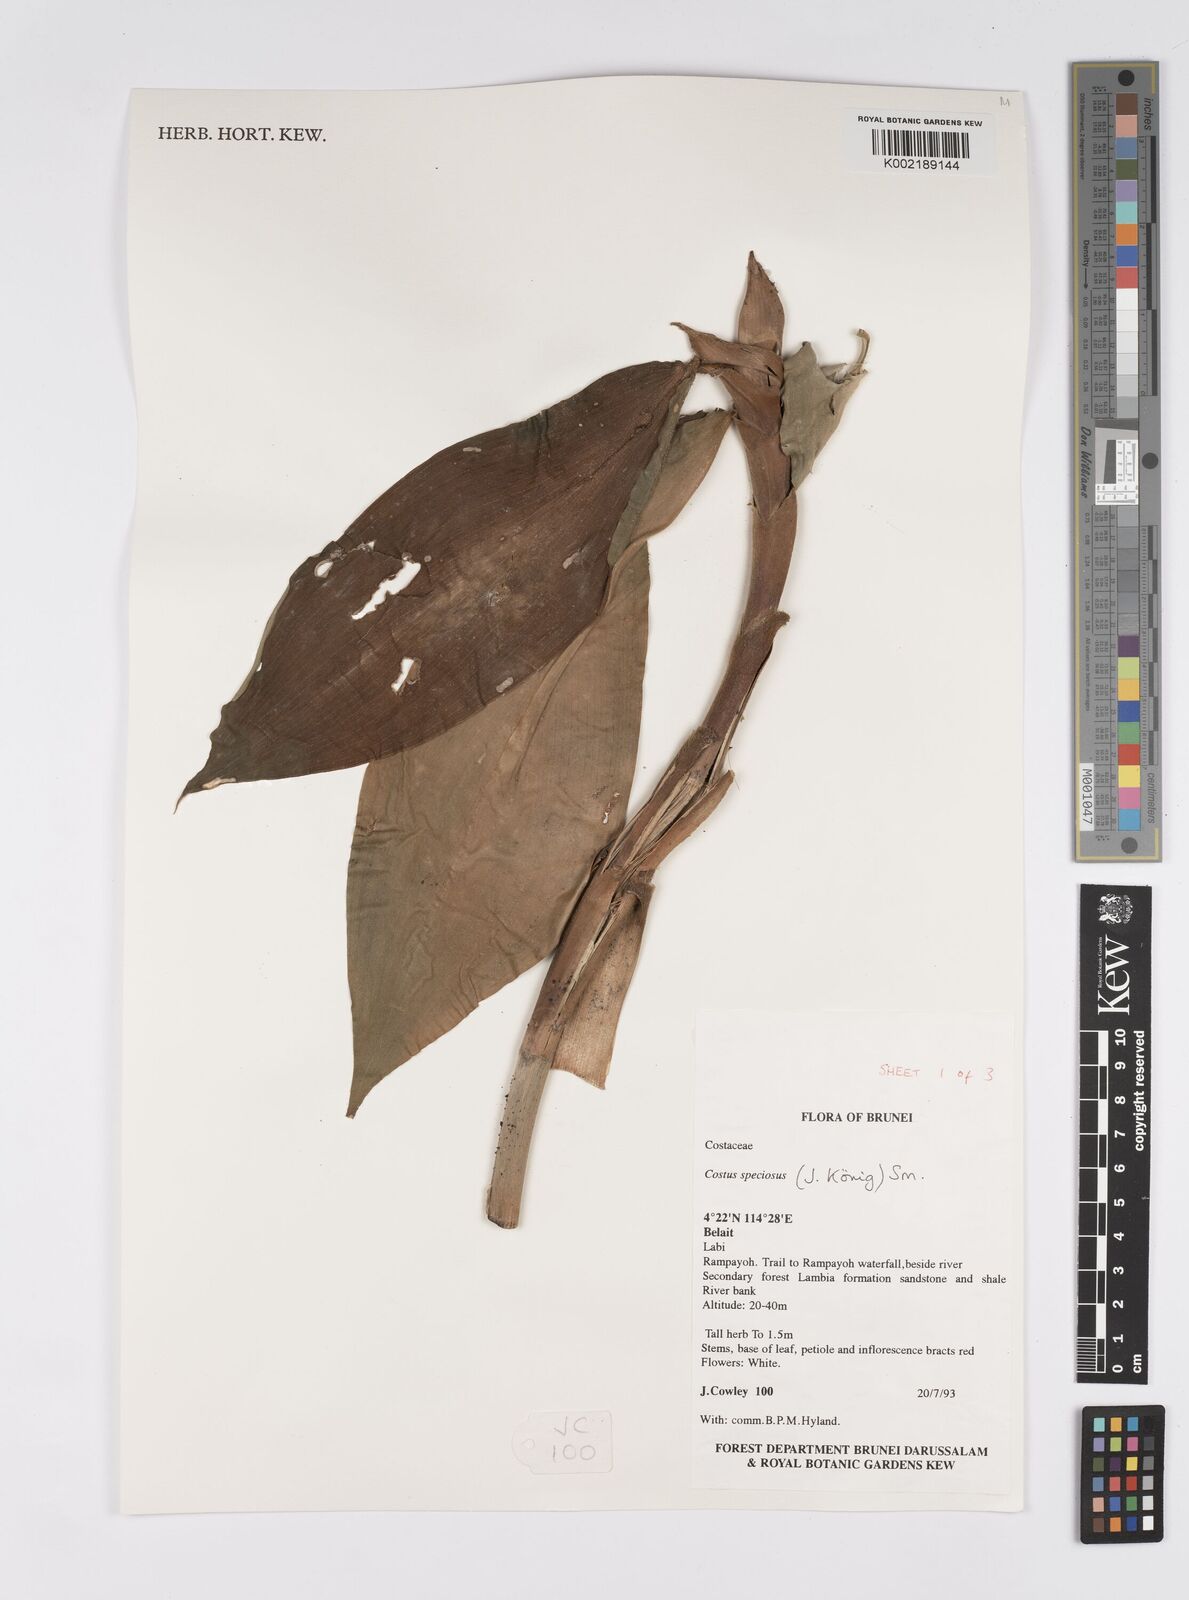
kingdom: Plantae
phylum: Tracheophyta
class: Liliopsida
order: Zingiberales
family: Costaceae
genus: Hellenia
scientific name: Hellenia speciosa
